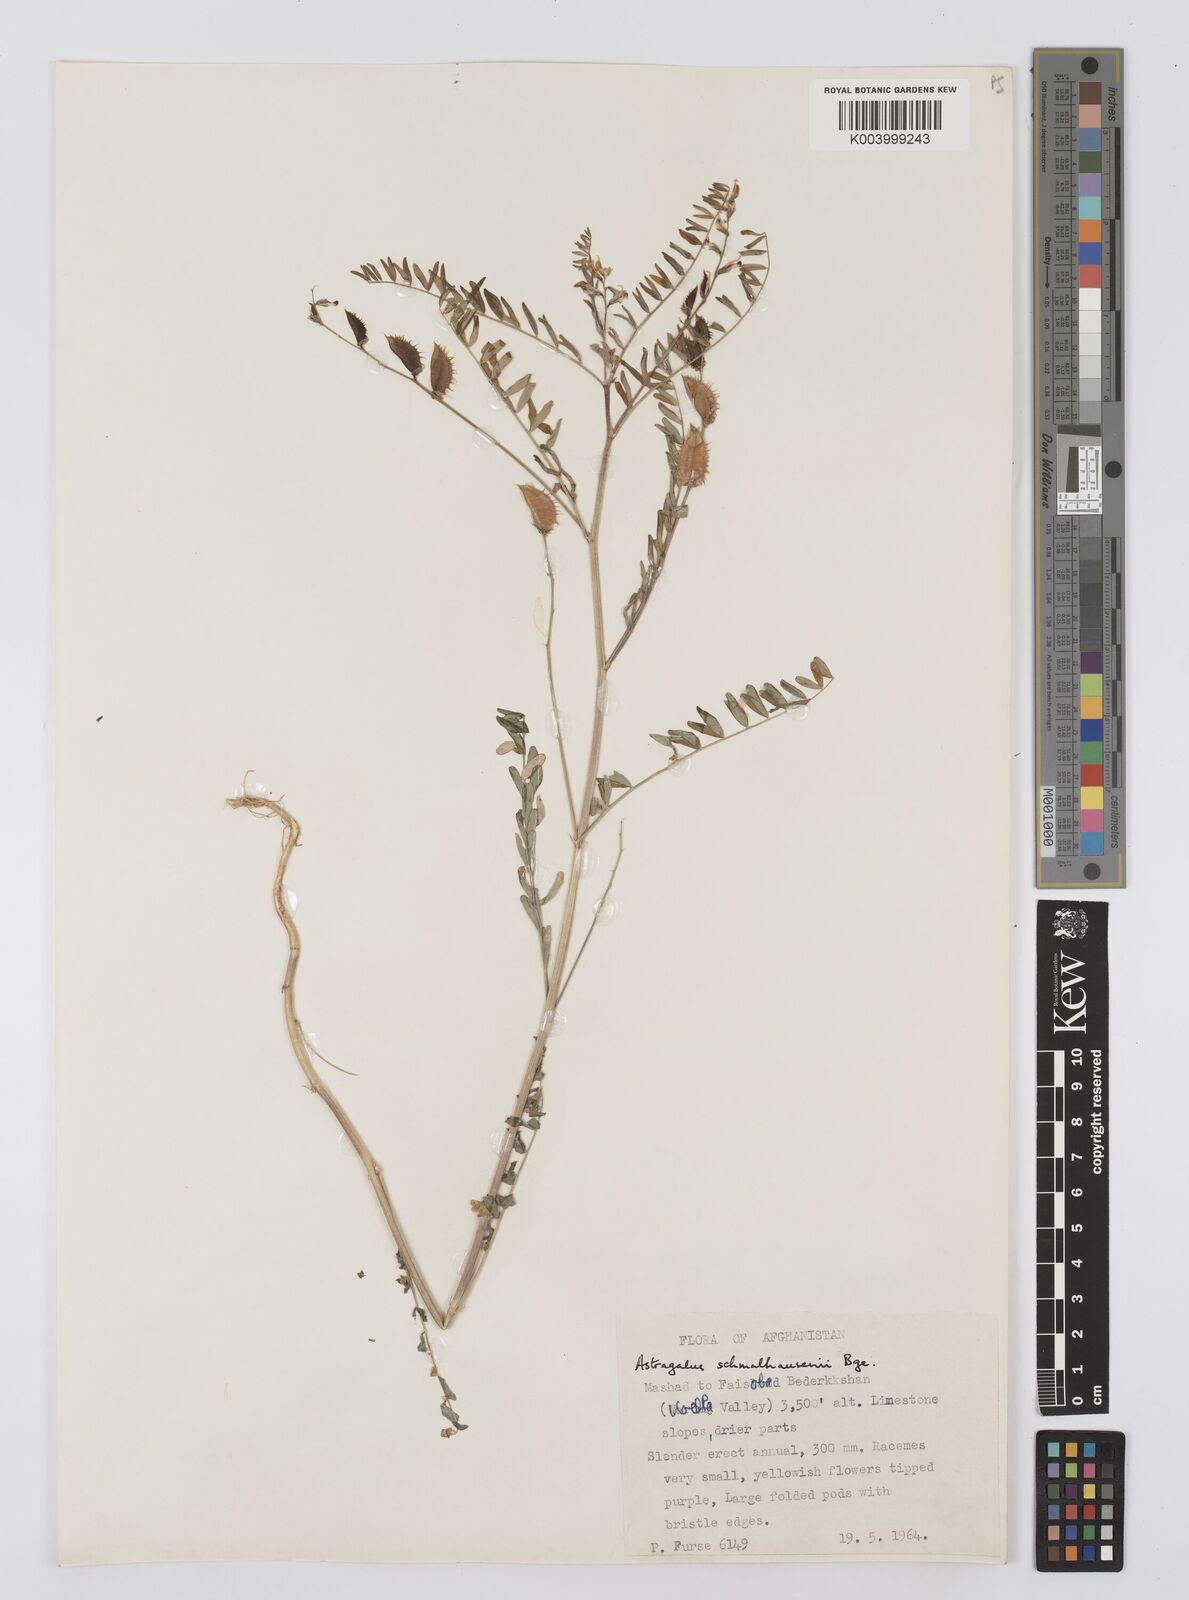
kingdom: Plantae
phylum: Tracheophyta
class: Magnoliopsida
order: Fabales
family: Fabaceae
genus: Astragalus
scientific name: Astragalus schmalhausenii
